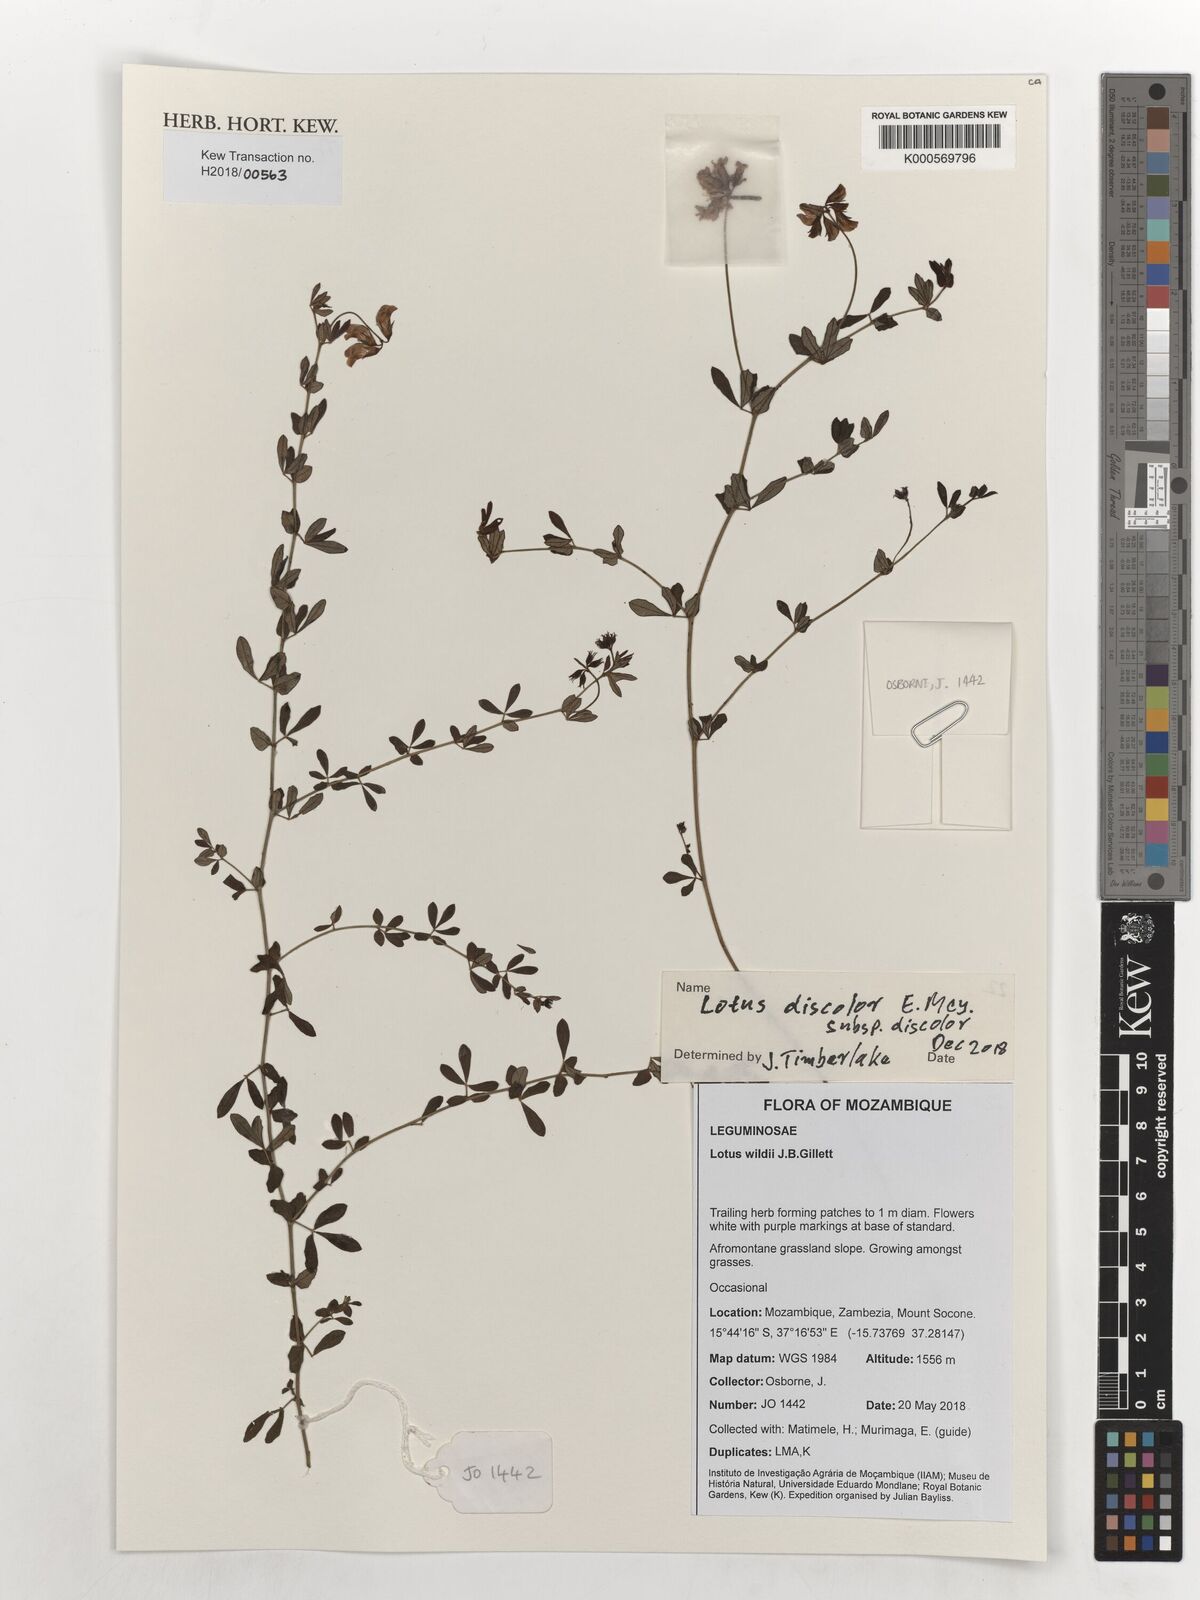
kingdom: Plantae
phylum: Tracheophyta
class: Magnoliopsida
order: Fabales
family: Fabaceae
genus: Lotus
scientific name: Lotus discolor
